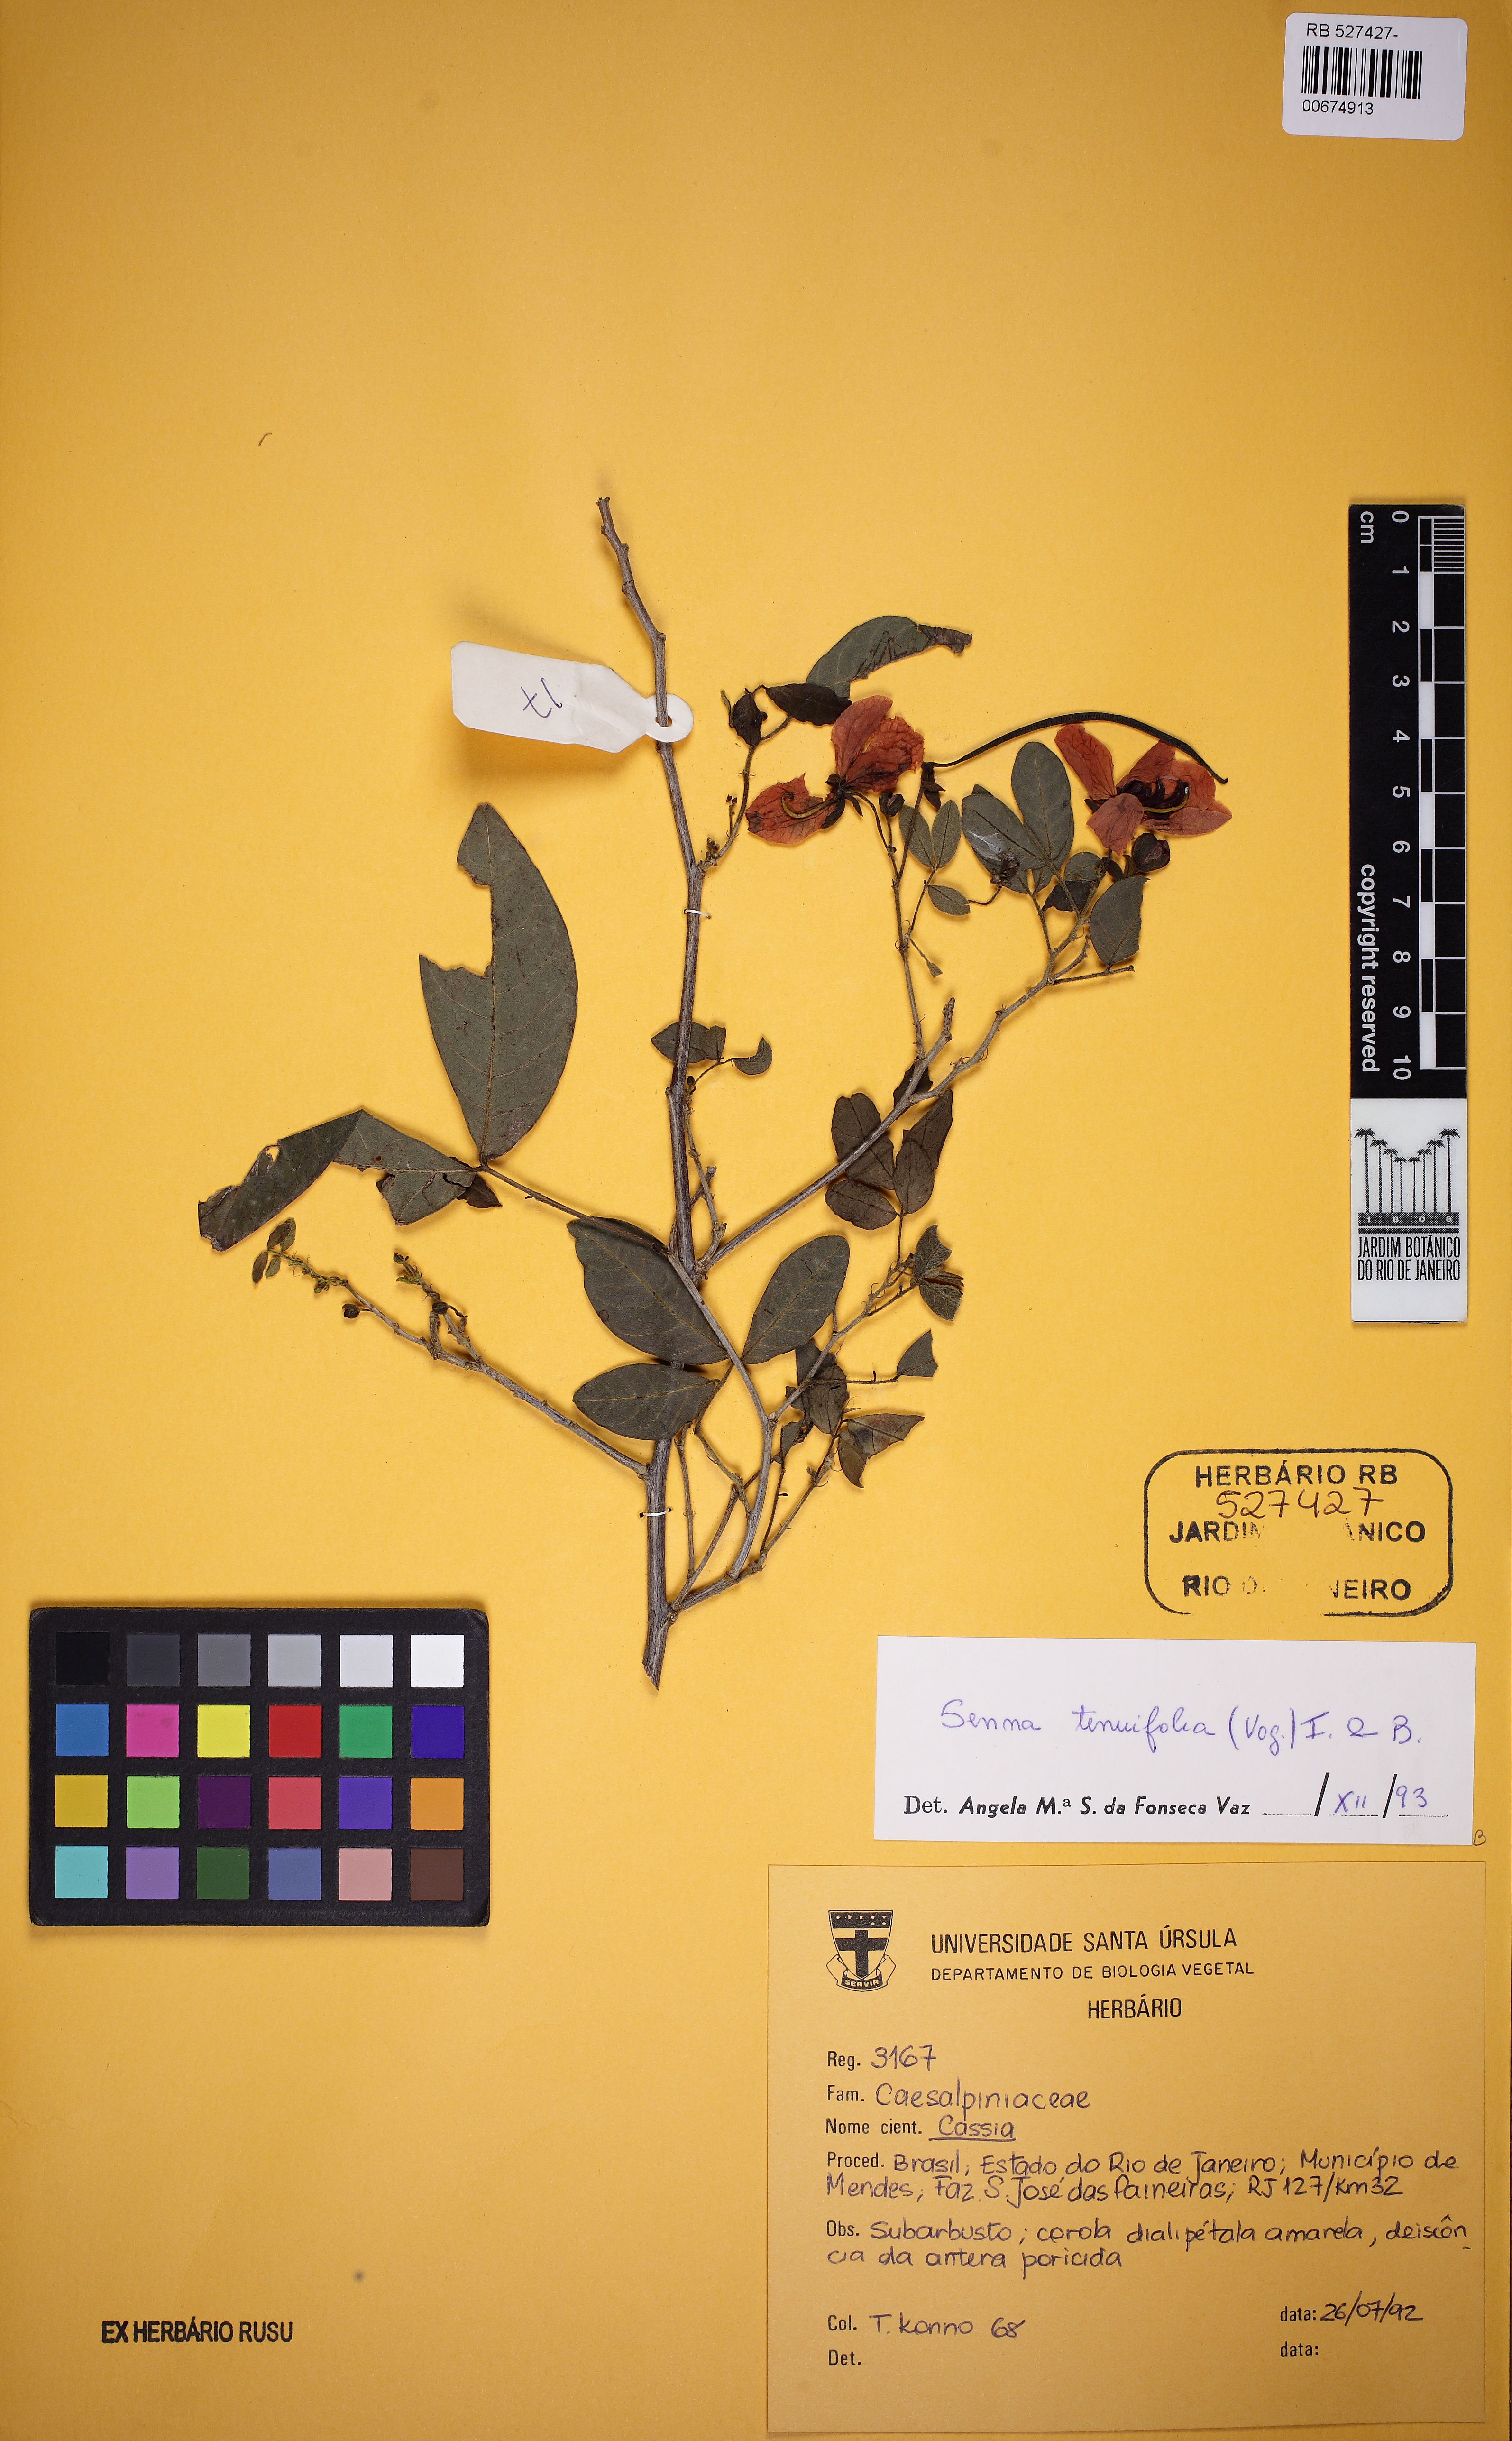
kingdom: Plantae
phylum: Tracheophyta
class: Magnoliopsida
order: Fabales
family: Fabaceae
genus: Senna
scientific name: Senna tenuifolia
